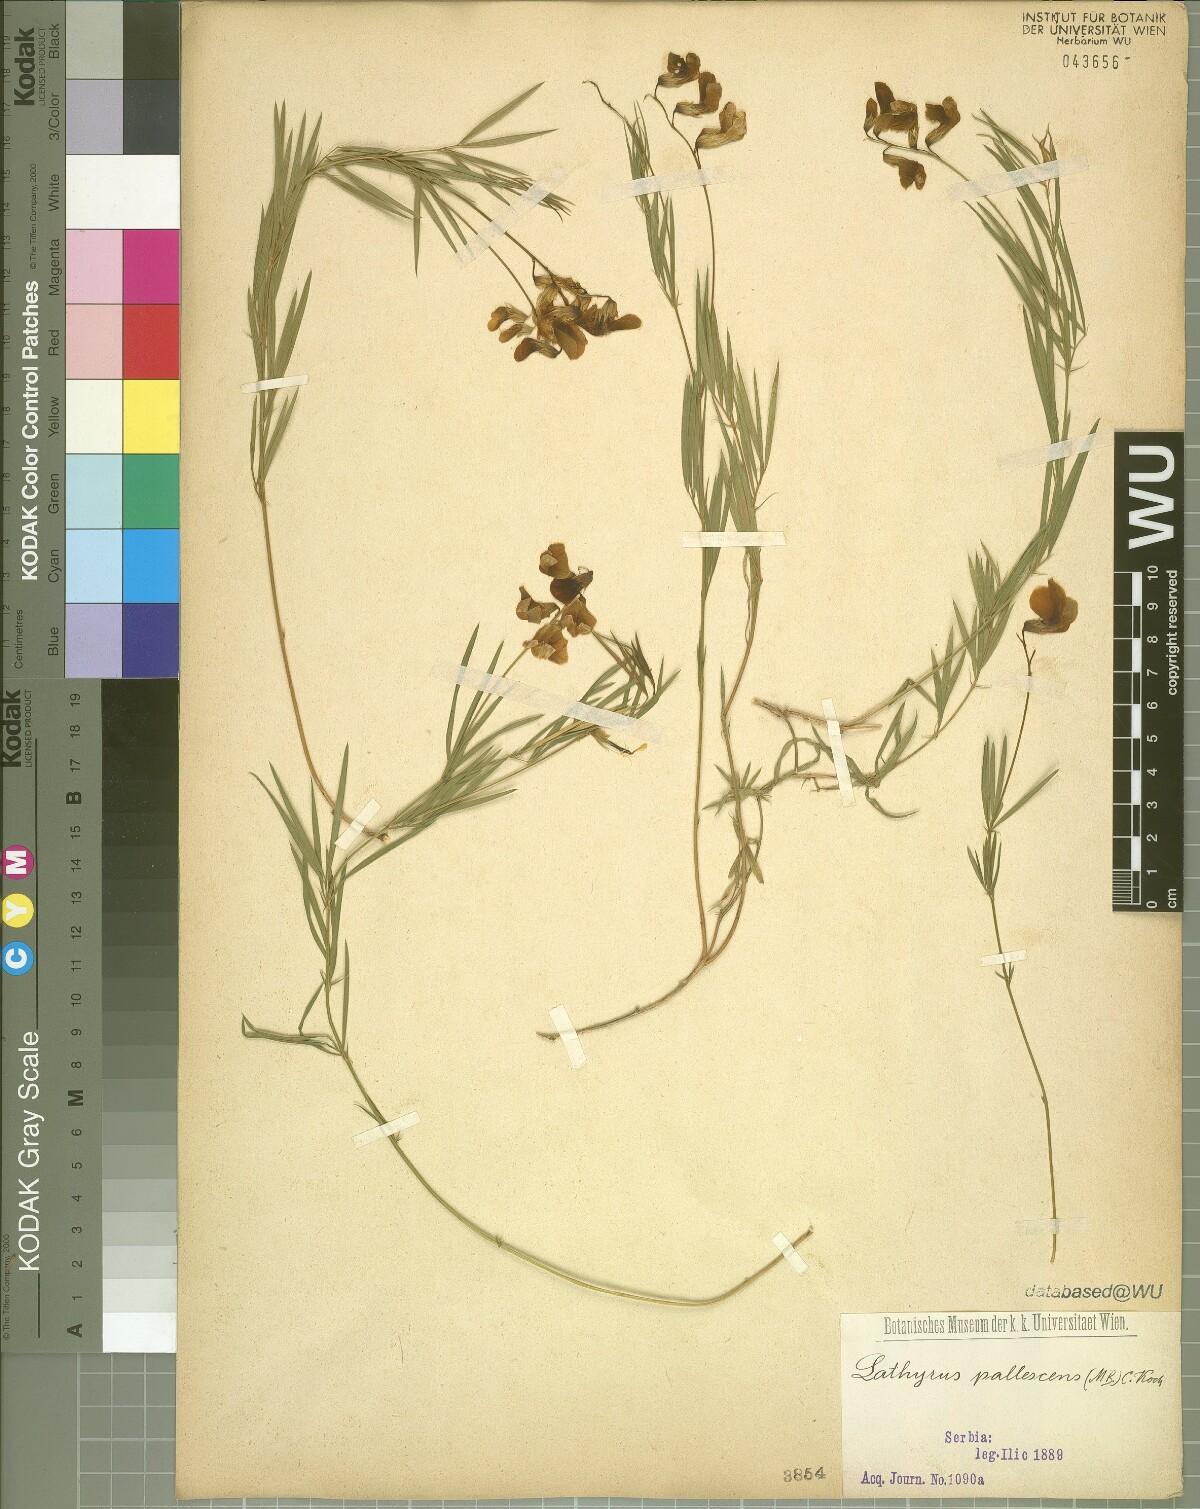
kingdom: Plantae
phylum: Tracheophyta
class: Magnoliopsida
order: Fabales
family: Fabaceae
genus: Lathyrus
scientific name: Lathyrus pallescens
